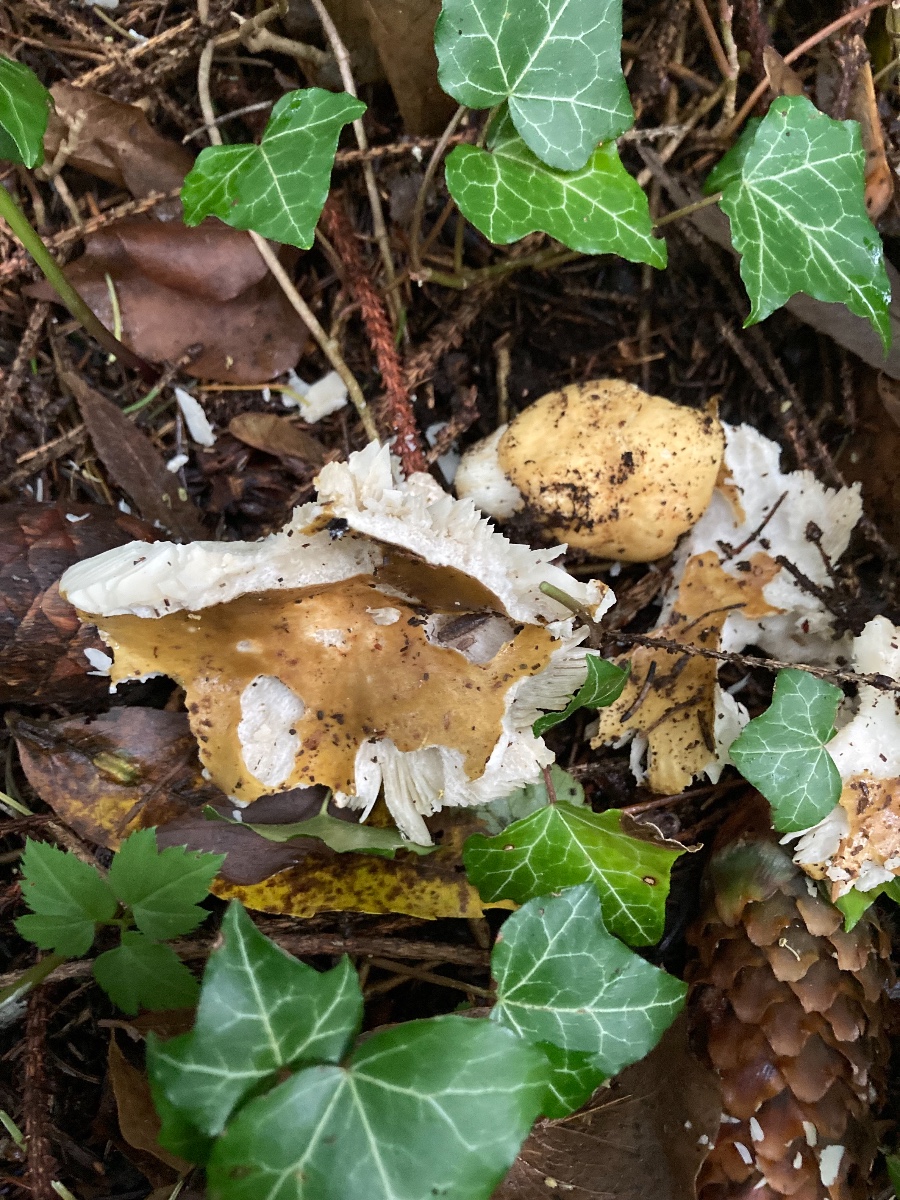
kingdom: Fungi
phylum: Basidiomycota
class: Agaricomycetes
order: Russulales
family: Russulaceae
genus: Russula
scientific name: Russula ochroleuca
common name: okkergul skørhat
